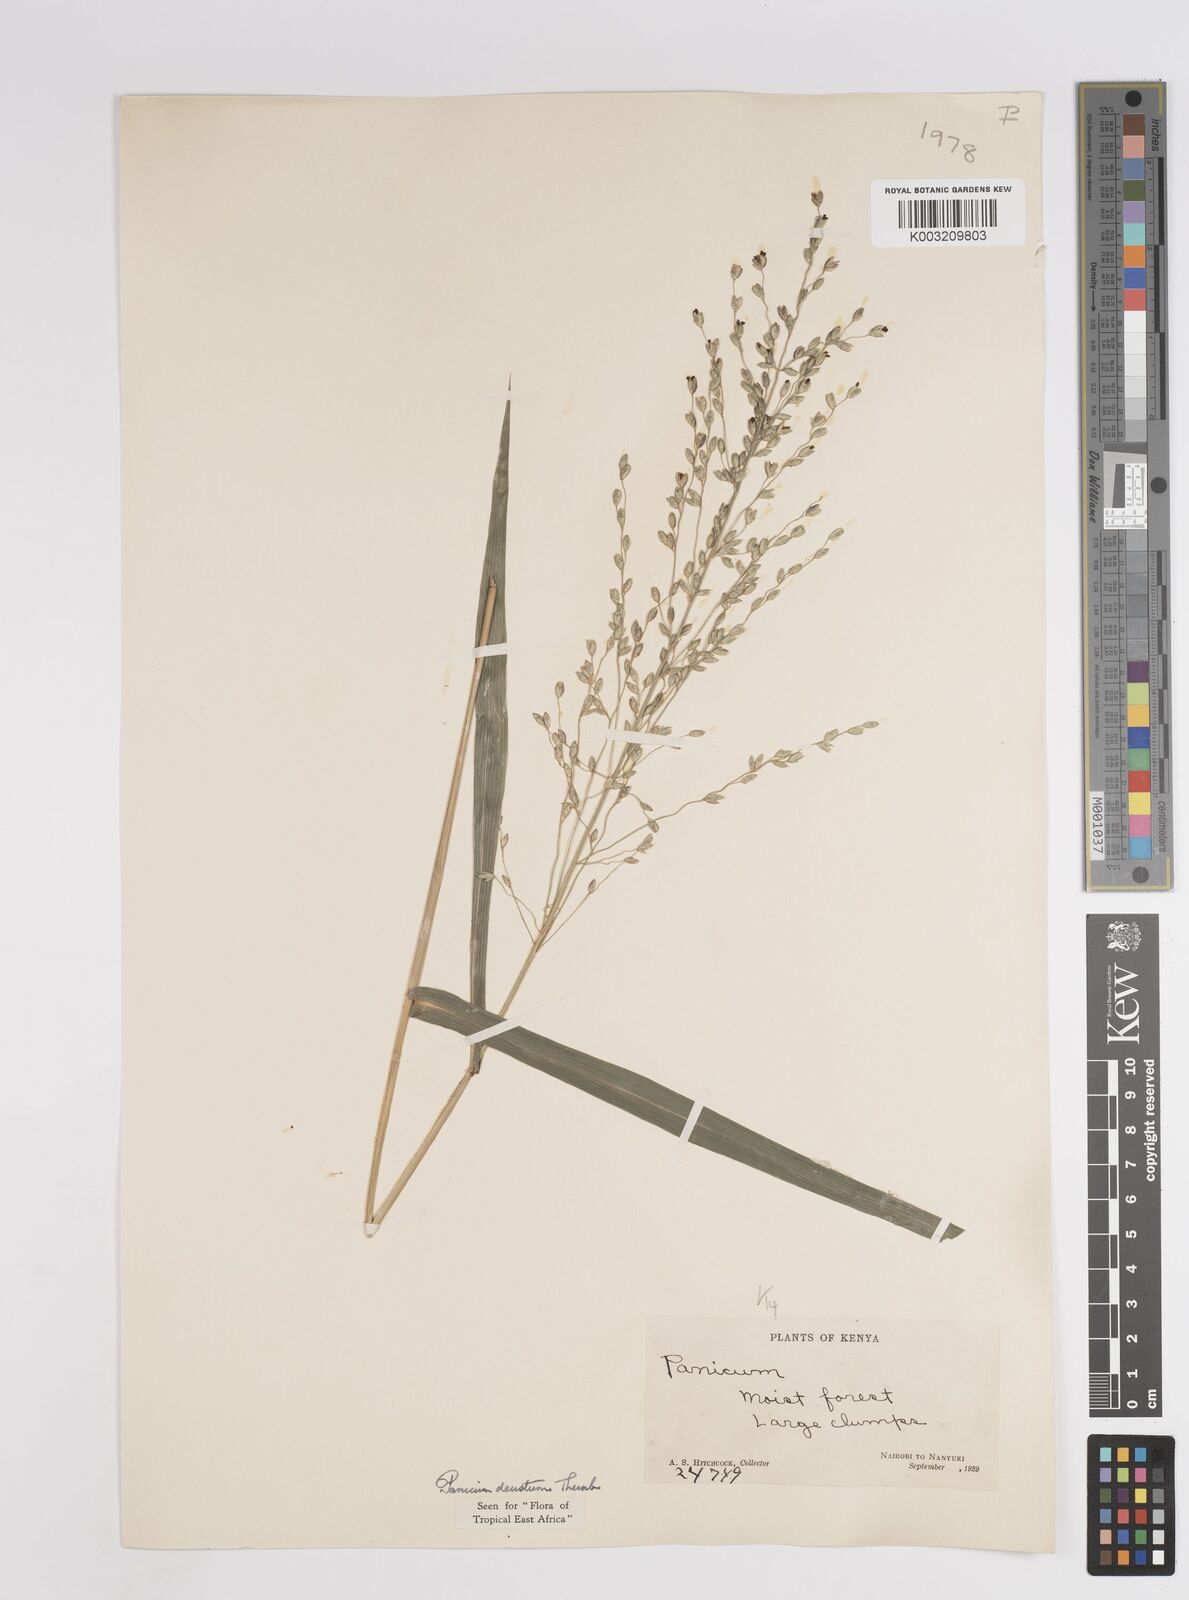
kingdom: Plantae
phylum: Tracheophyta
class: Liliopsida
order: Poales
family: Poaceae
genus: Panicum
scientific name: Panicum deustum
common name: Reed panicum
